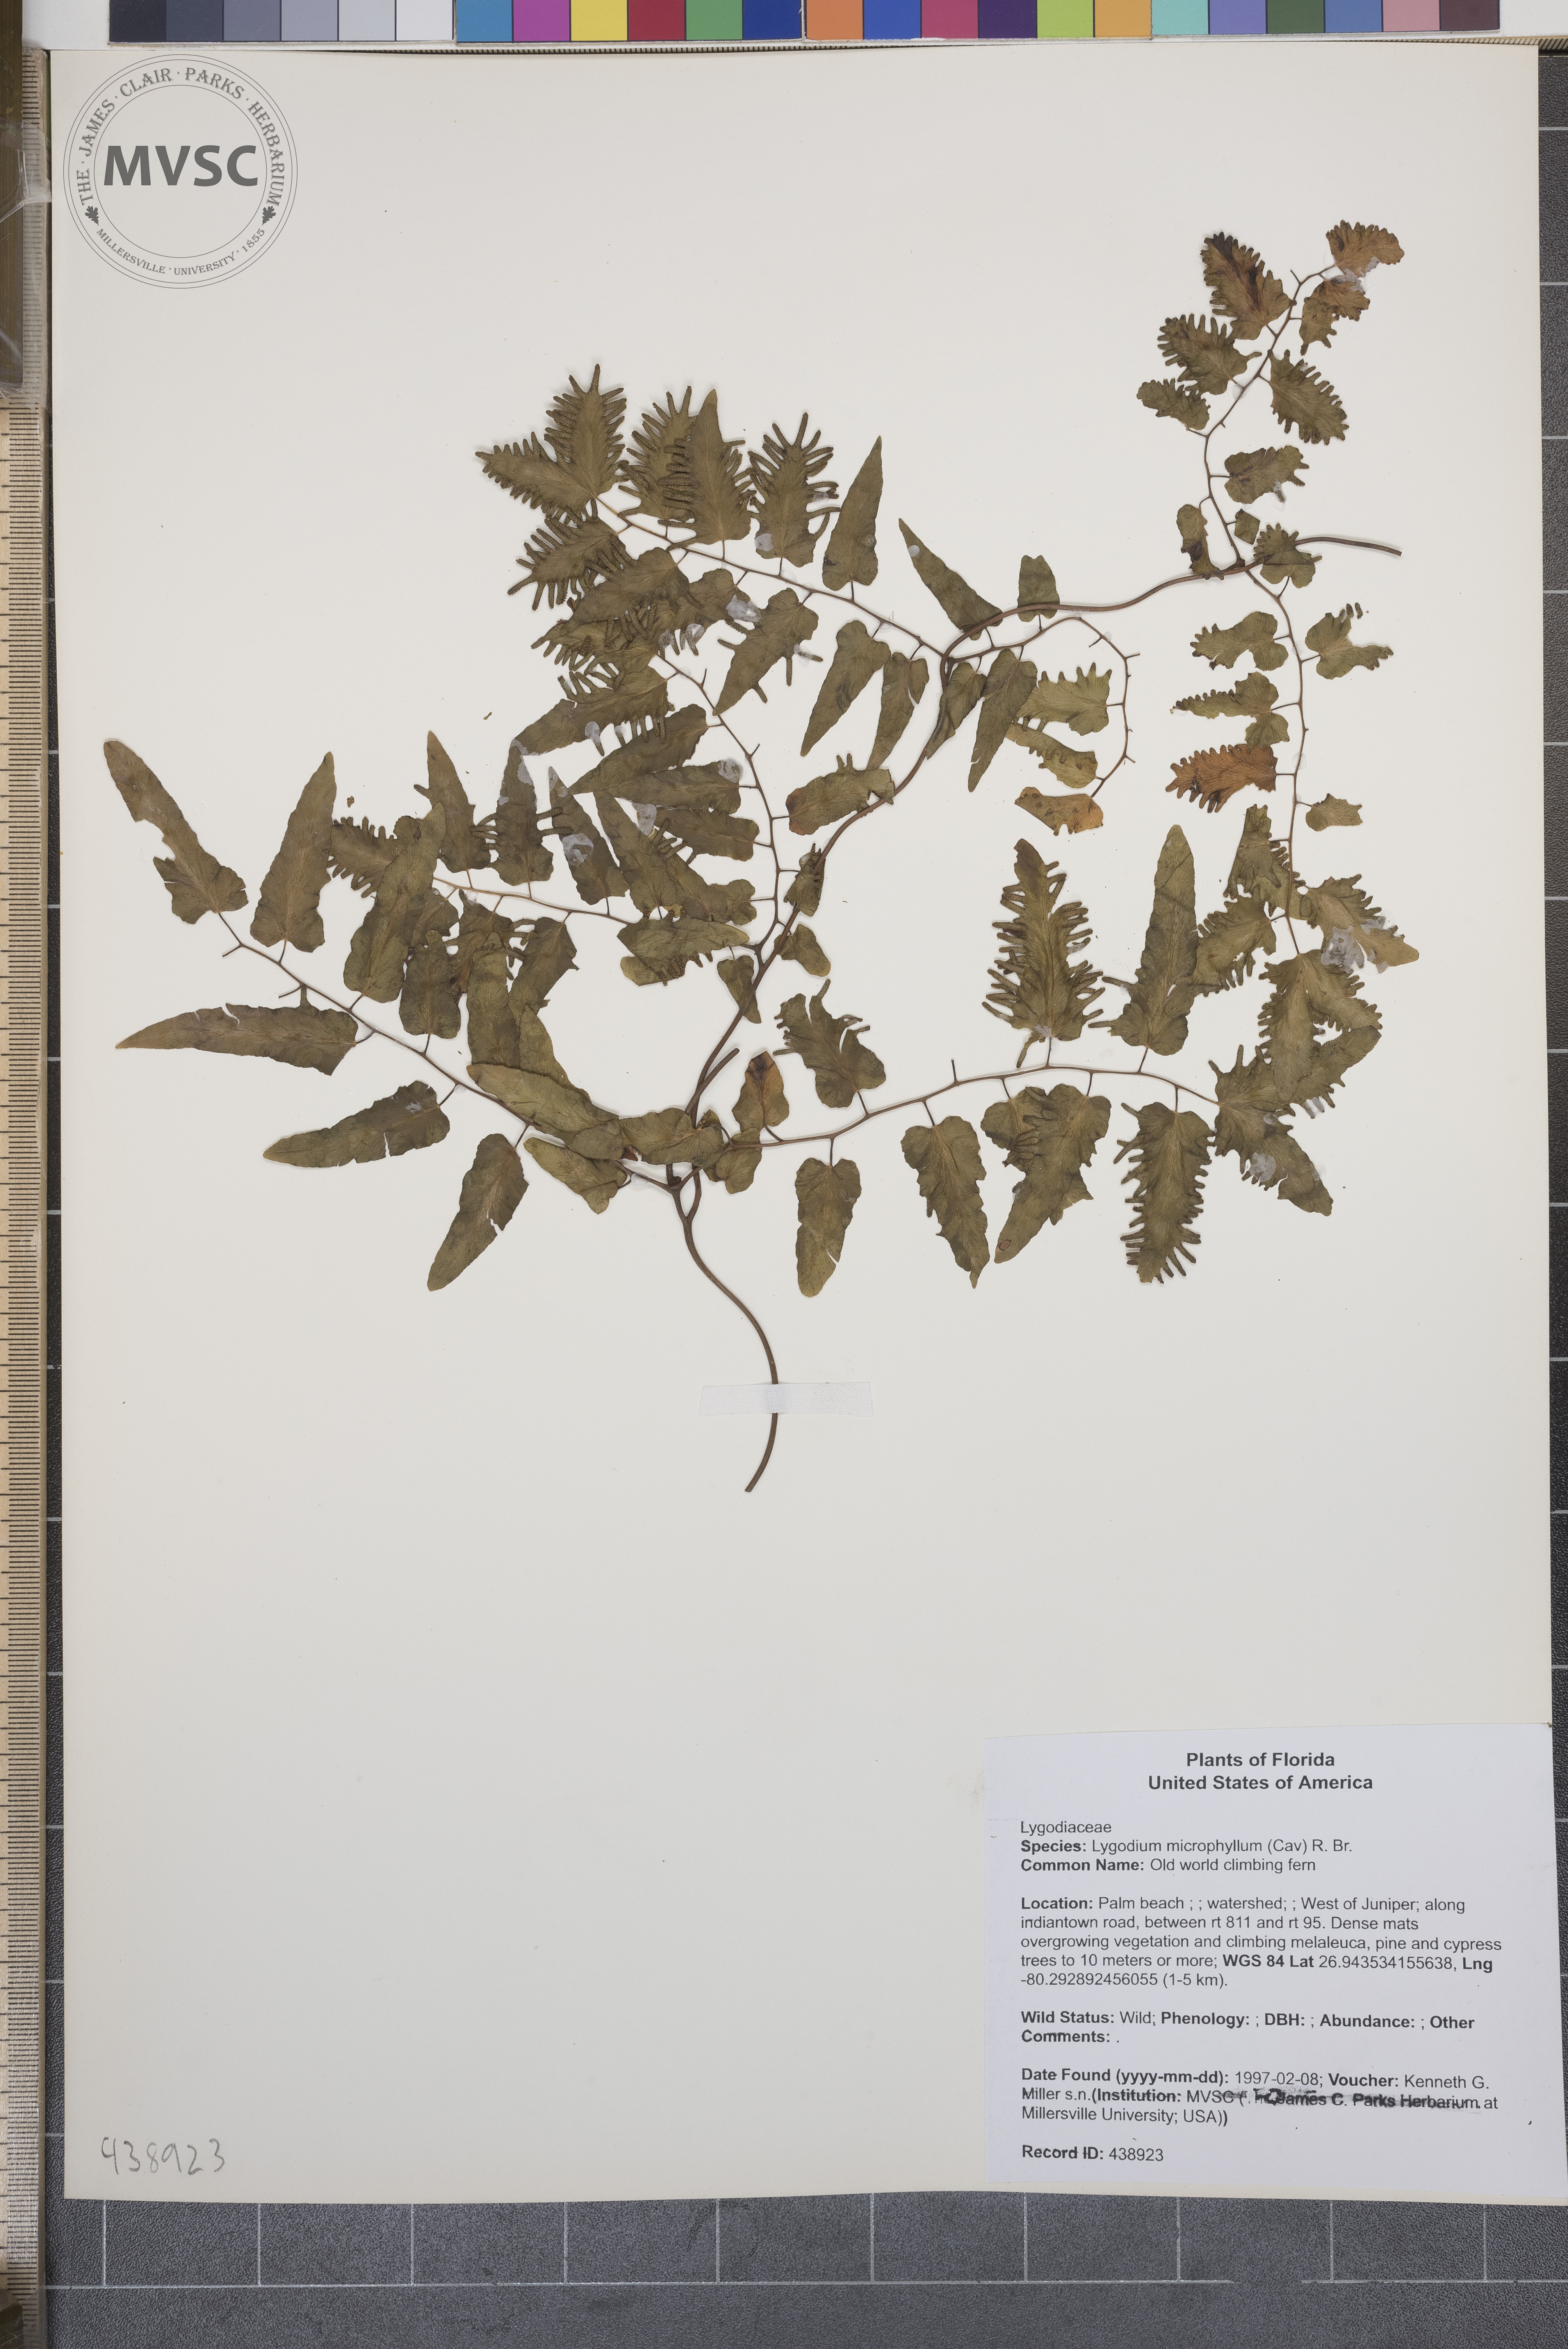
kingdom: Plantae
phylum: Tracheophyta
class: Polypodiopsida
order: Schizaeales
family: Lygodiaceae
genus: Lygodium
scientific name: Lygodium microphyllum
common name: Old world climbing fern
